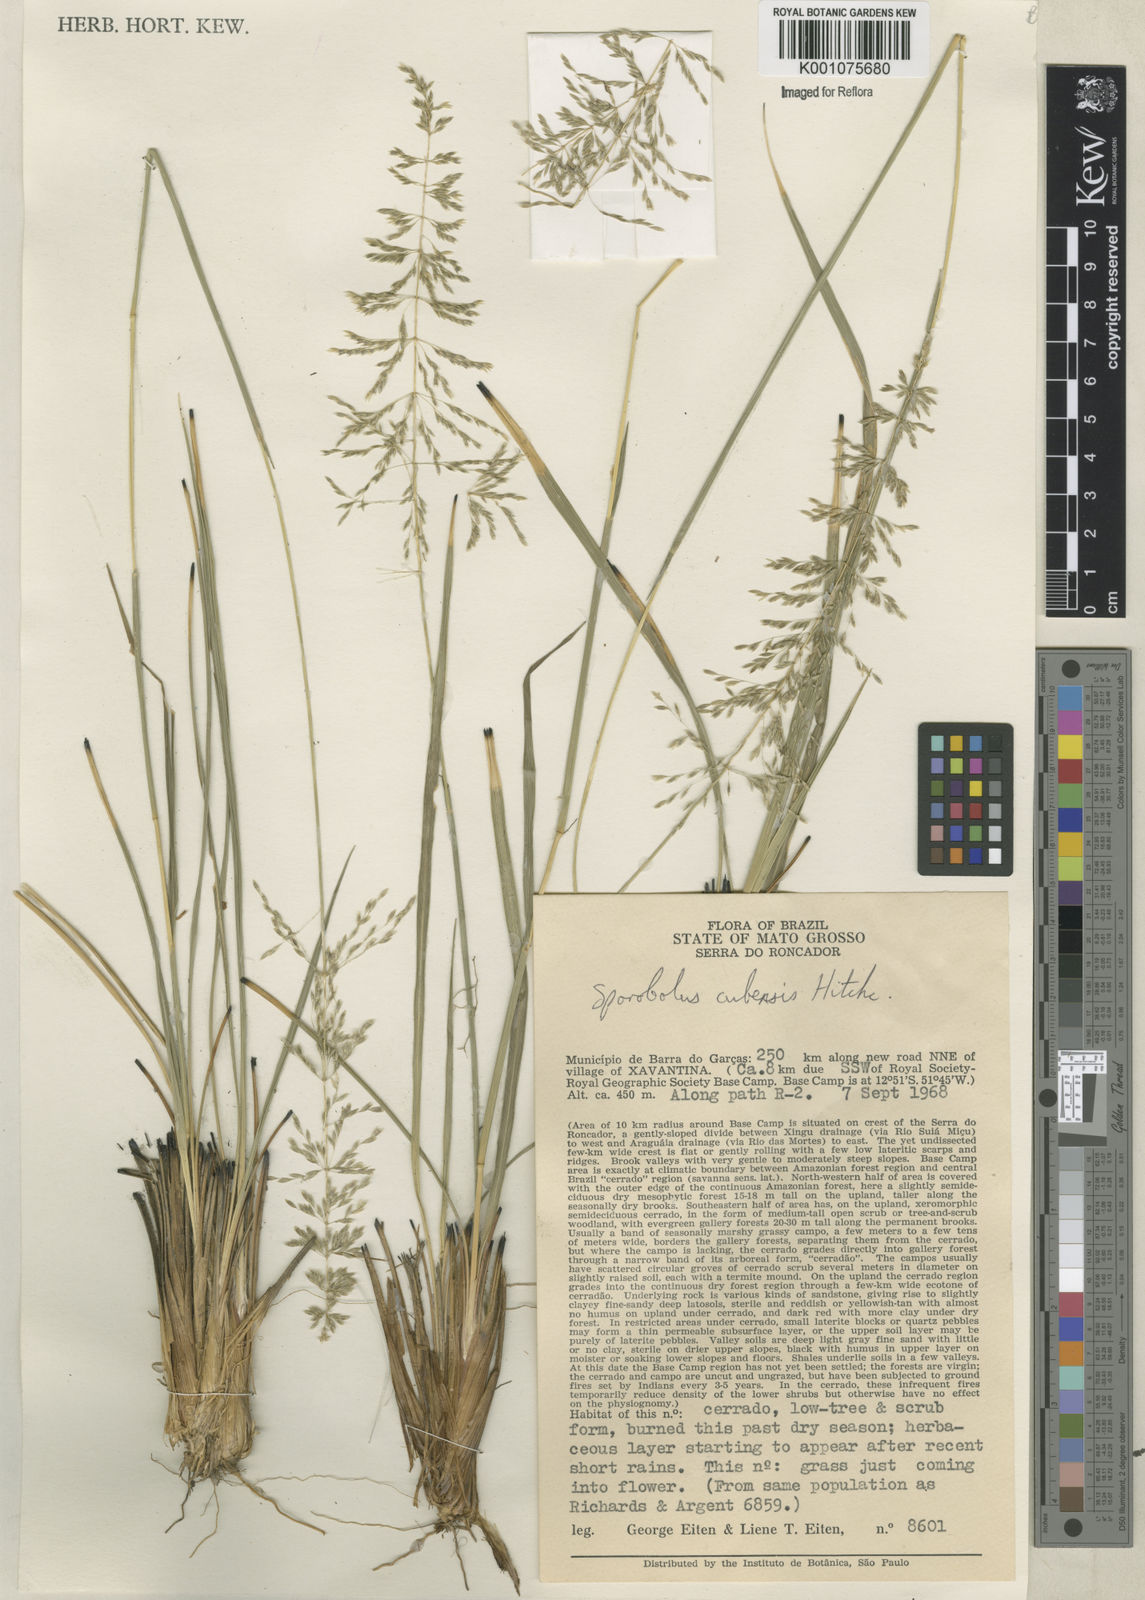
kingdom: Plantae
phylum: Tracheophyta
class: Liliopsida
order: Poales
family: Poaceae
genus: Sporobolus
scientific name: Sporobolus cubensis
